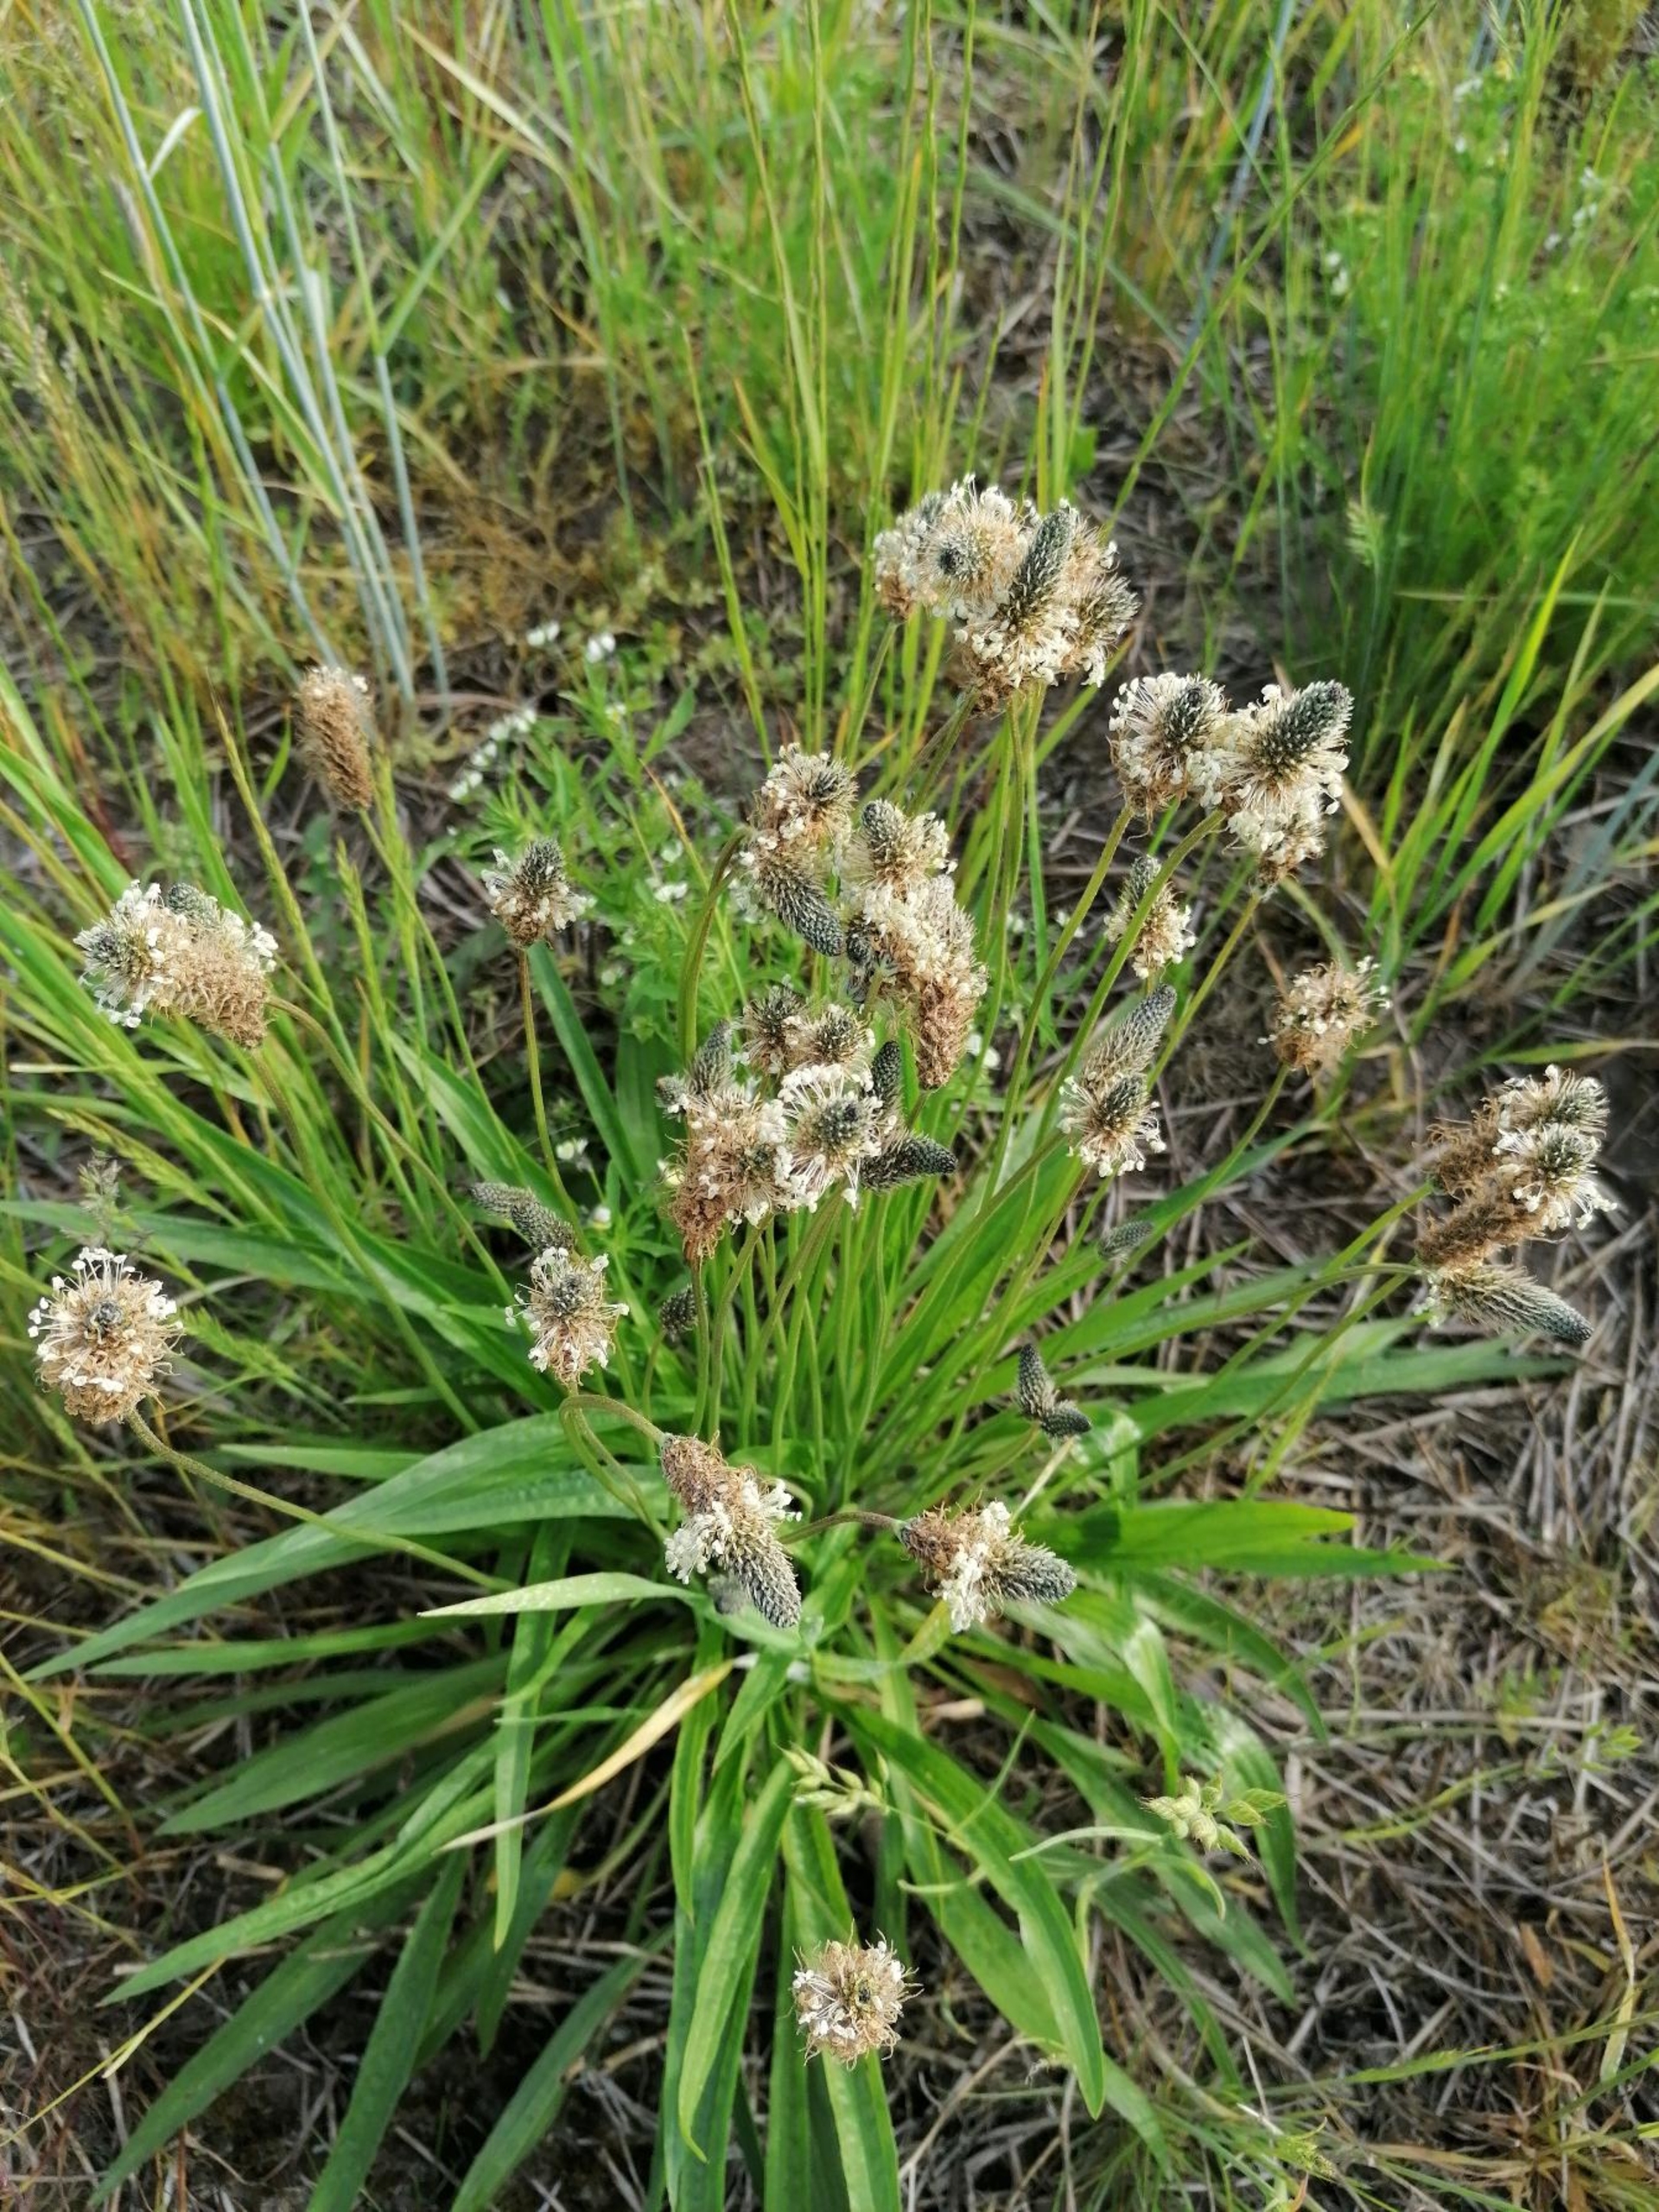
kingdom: Plantae
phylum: Tracheophyta
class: Magnoliopsida
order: Lamiales
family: Plantaginaceae
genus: Plantago
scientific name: Plantago lanceolata
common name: Lancet-vejbred
